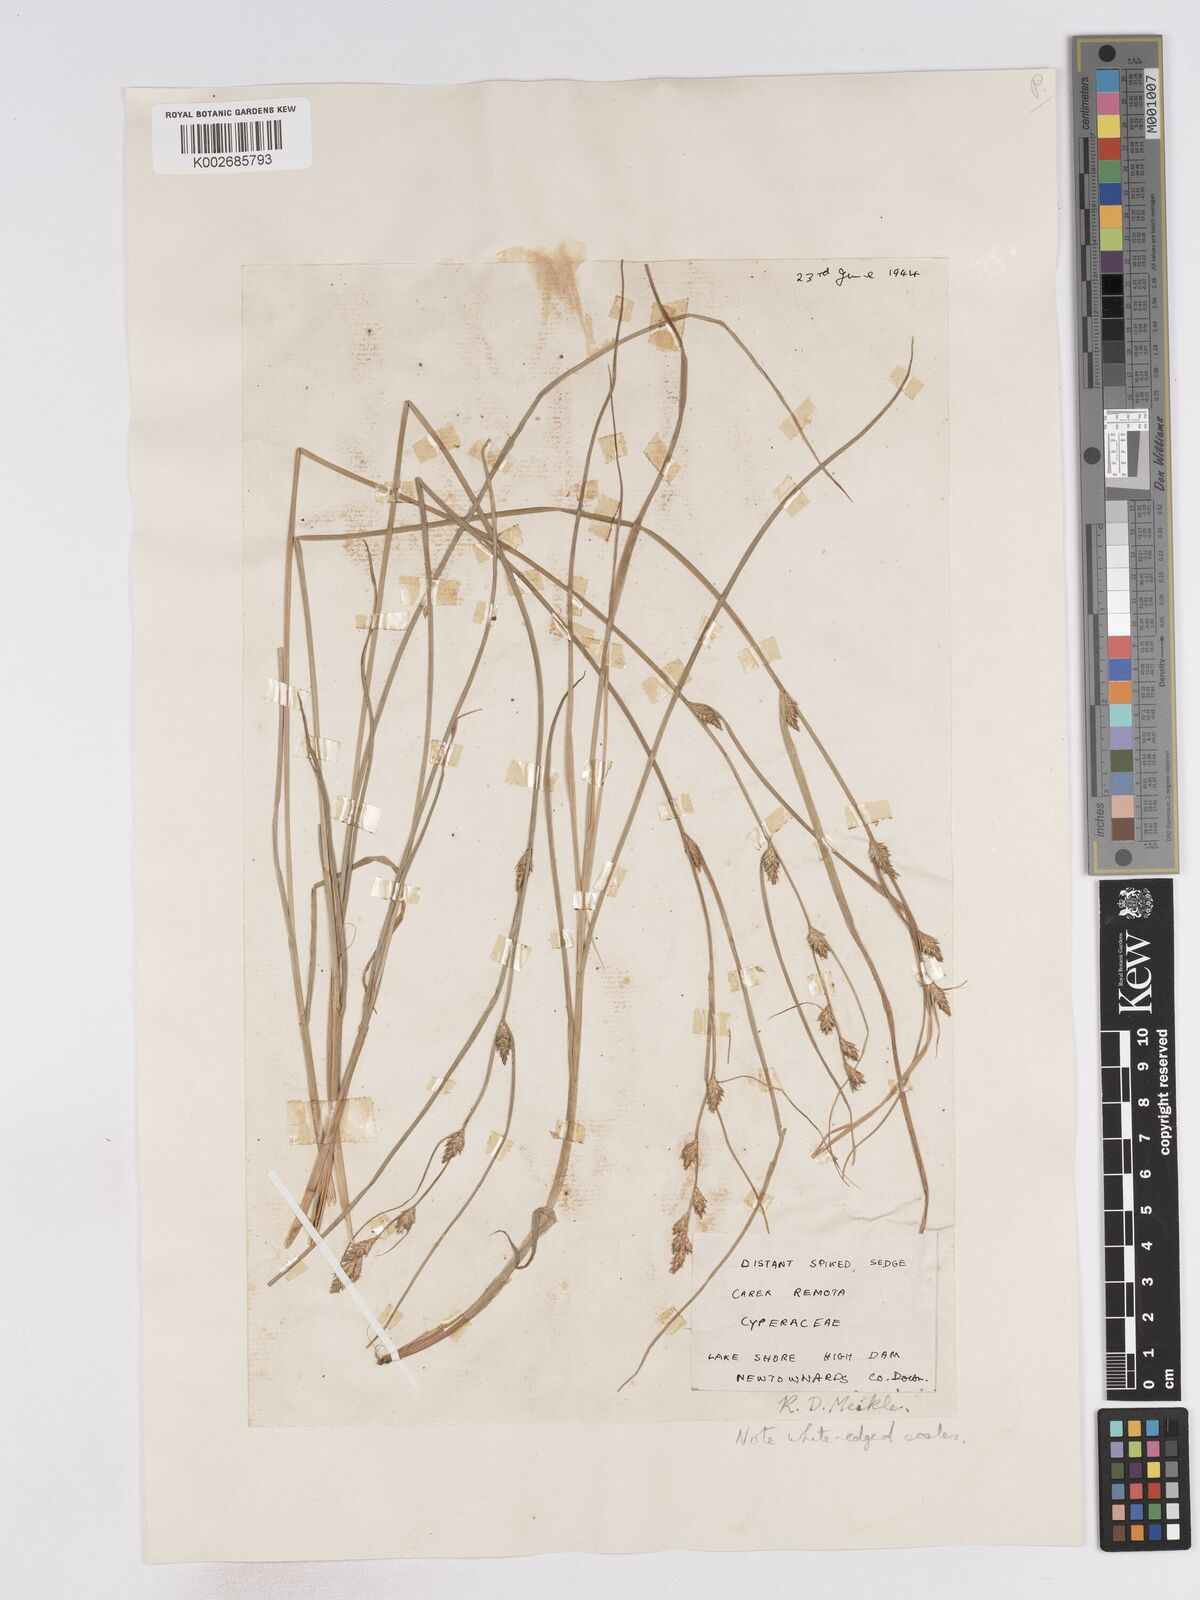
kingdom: Plantae
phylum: Tracheophyta
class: Liliopsida
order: Poales
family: Cyperaceae
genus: Carex
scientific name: Carex remota
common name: Remote sedge
